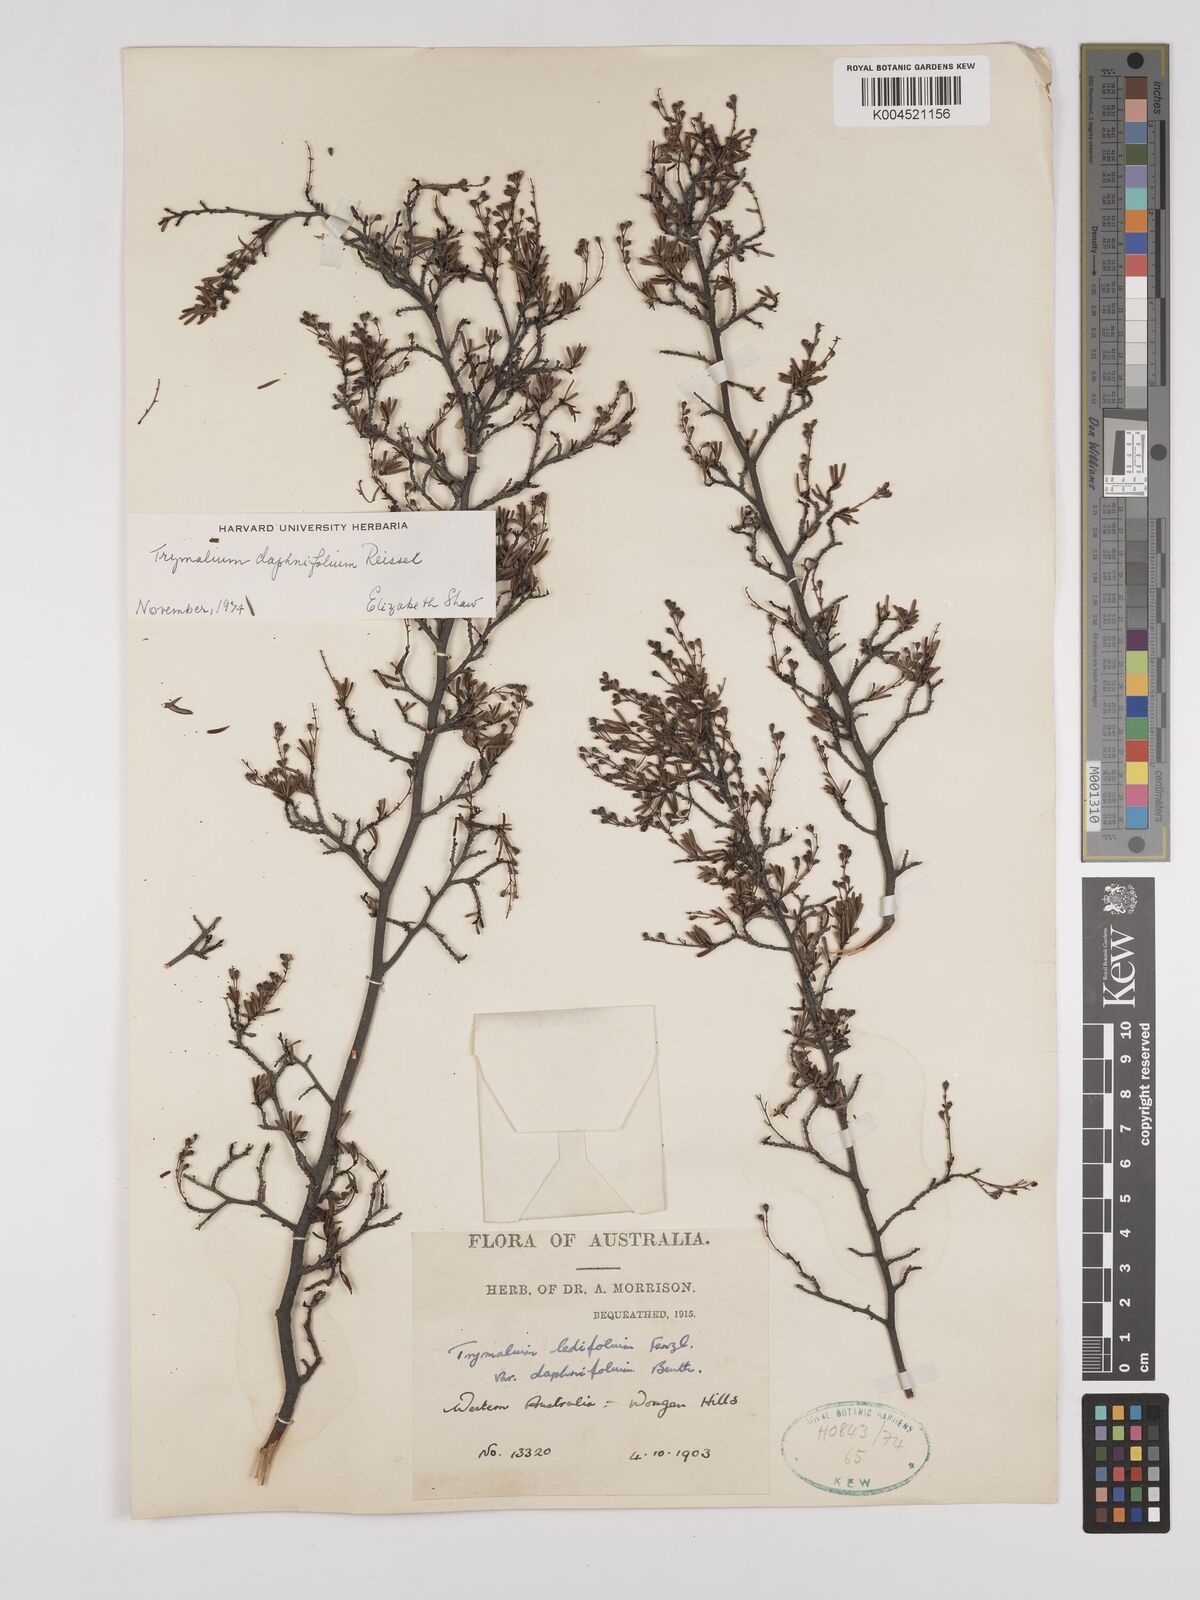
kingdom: Plantae
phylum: Tracheophyta
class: Magnoliopsida
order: Rosales
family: Rhamnaceae
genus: Trymalium
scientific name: Trymalium daphnifolium
